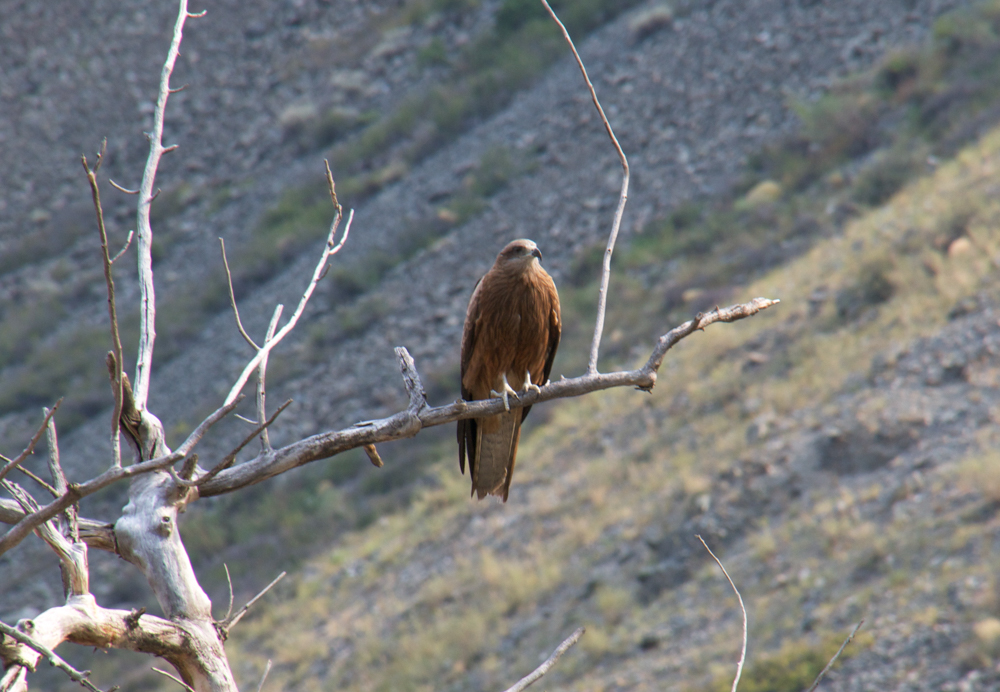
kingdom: Animalia
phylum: Chordata
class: Aves
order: Accipitriformes
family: Accipitridae
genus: Buteo
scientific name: Buteo rufinus
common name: Long-legged buzzard
